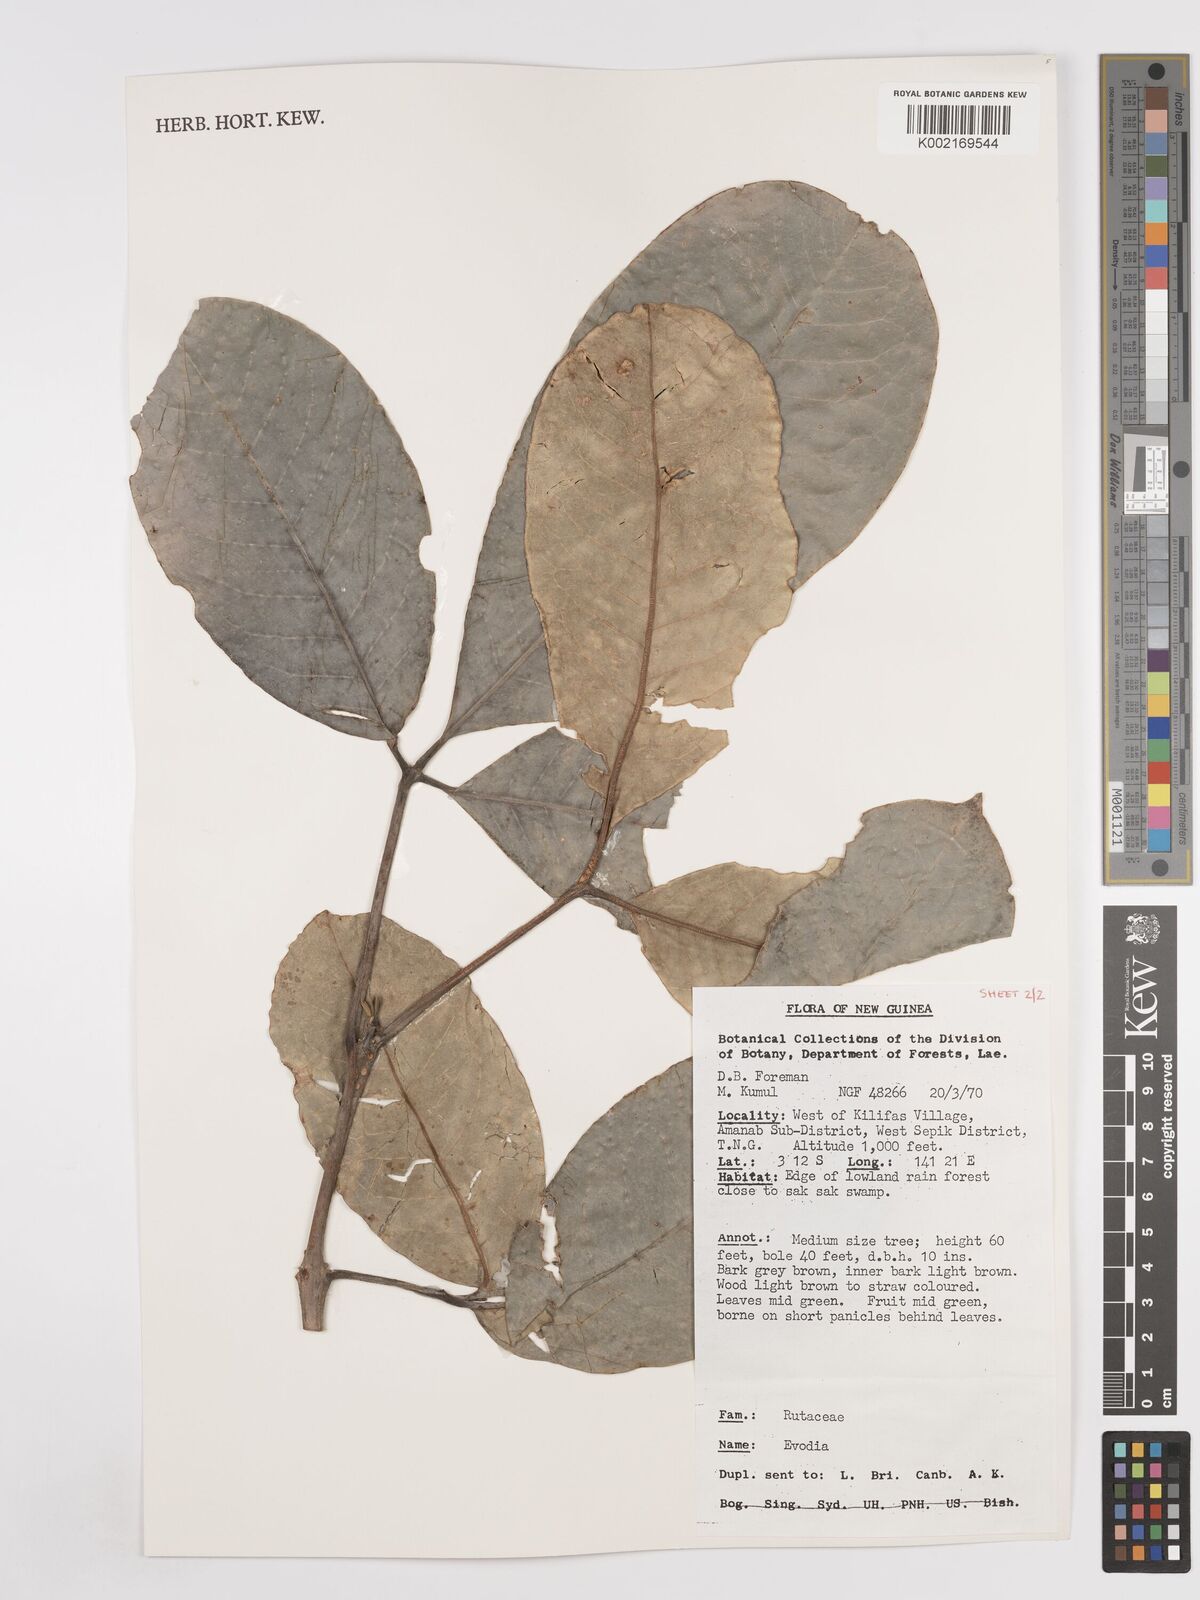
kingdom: Plantae
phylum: Tracheophyta
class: Magnoliopsida
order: Sapindales
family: Rutaceae
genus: Euodia
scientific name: Euodia
